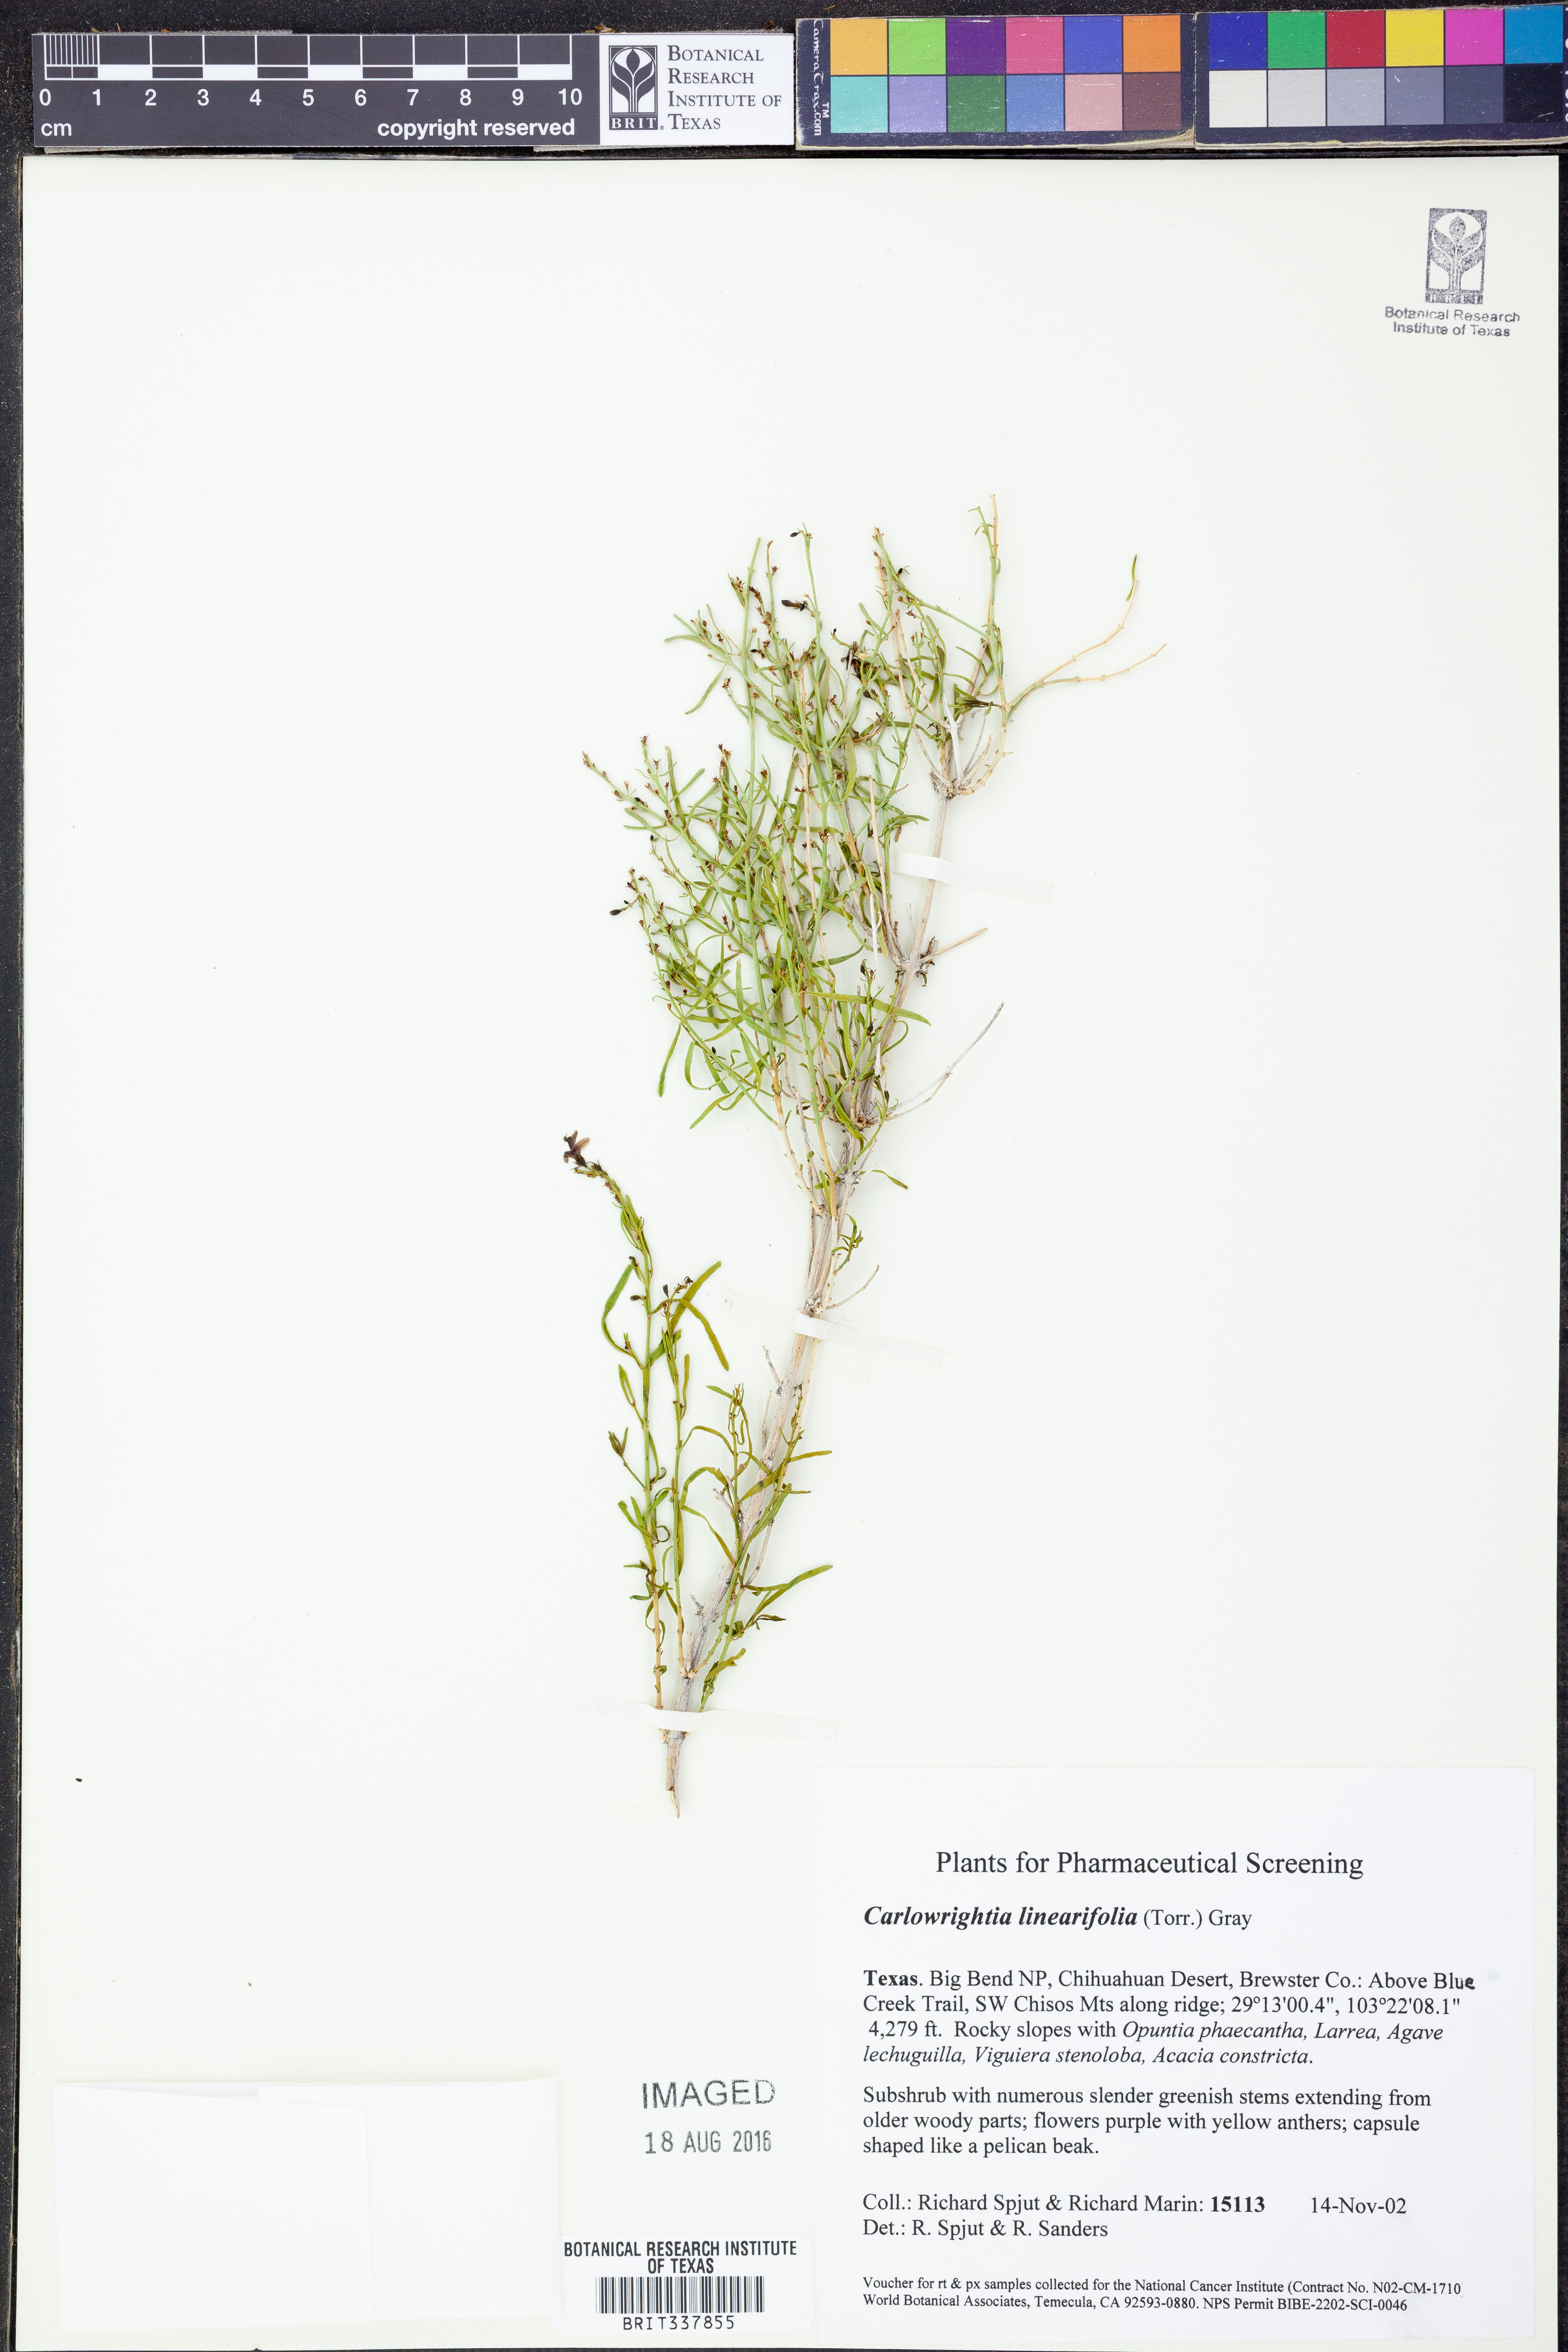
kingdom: Plantae
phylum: Tracheophyta
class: Magnoliopsida
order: Lamiales
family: Acanthaceae
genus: Carlowrightia
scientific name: Carlowrightia linearifolia
